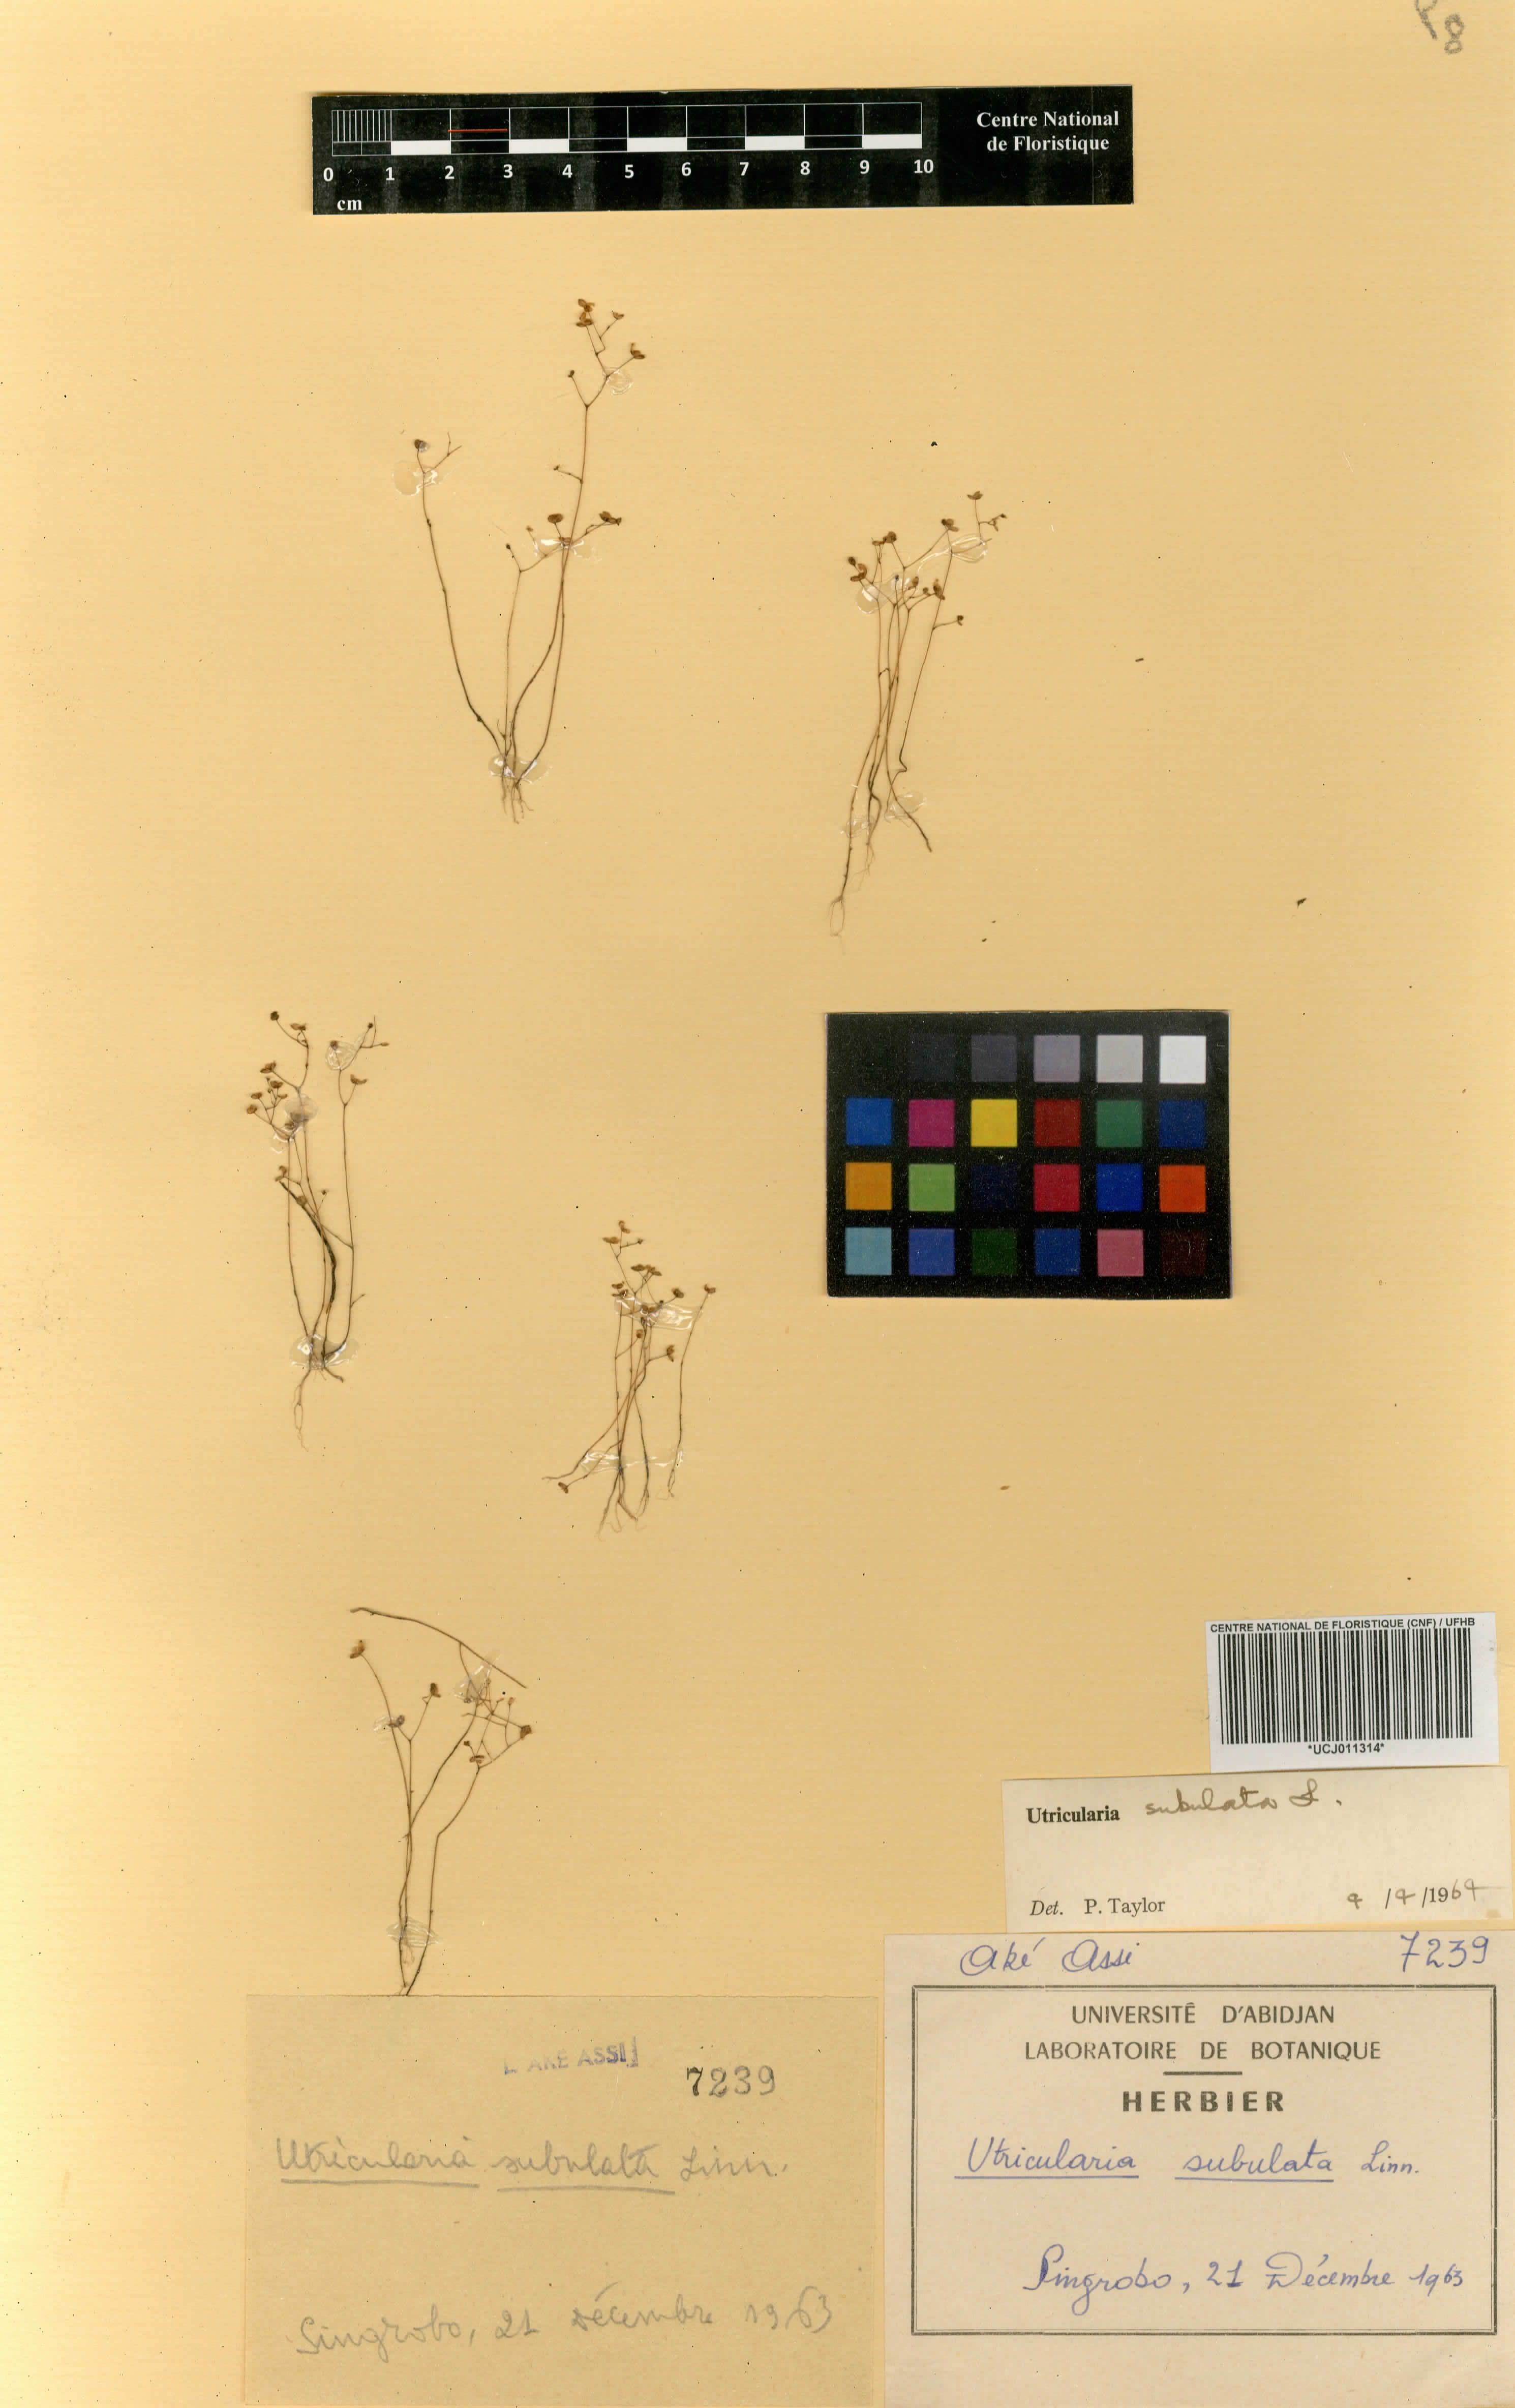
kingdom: Plantae
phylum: Tracheophyta
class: Magnoliopsida
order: Lamiales
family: Lentibulariaceae
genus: Utricularia
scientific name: Utricularia subulata
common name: Tiny bladderwort
